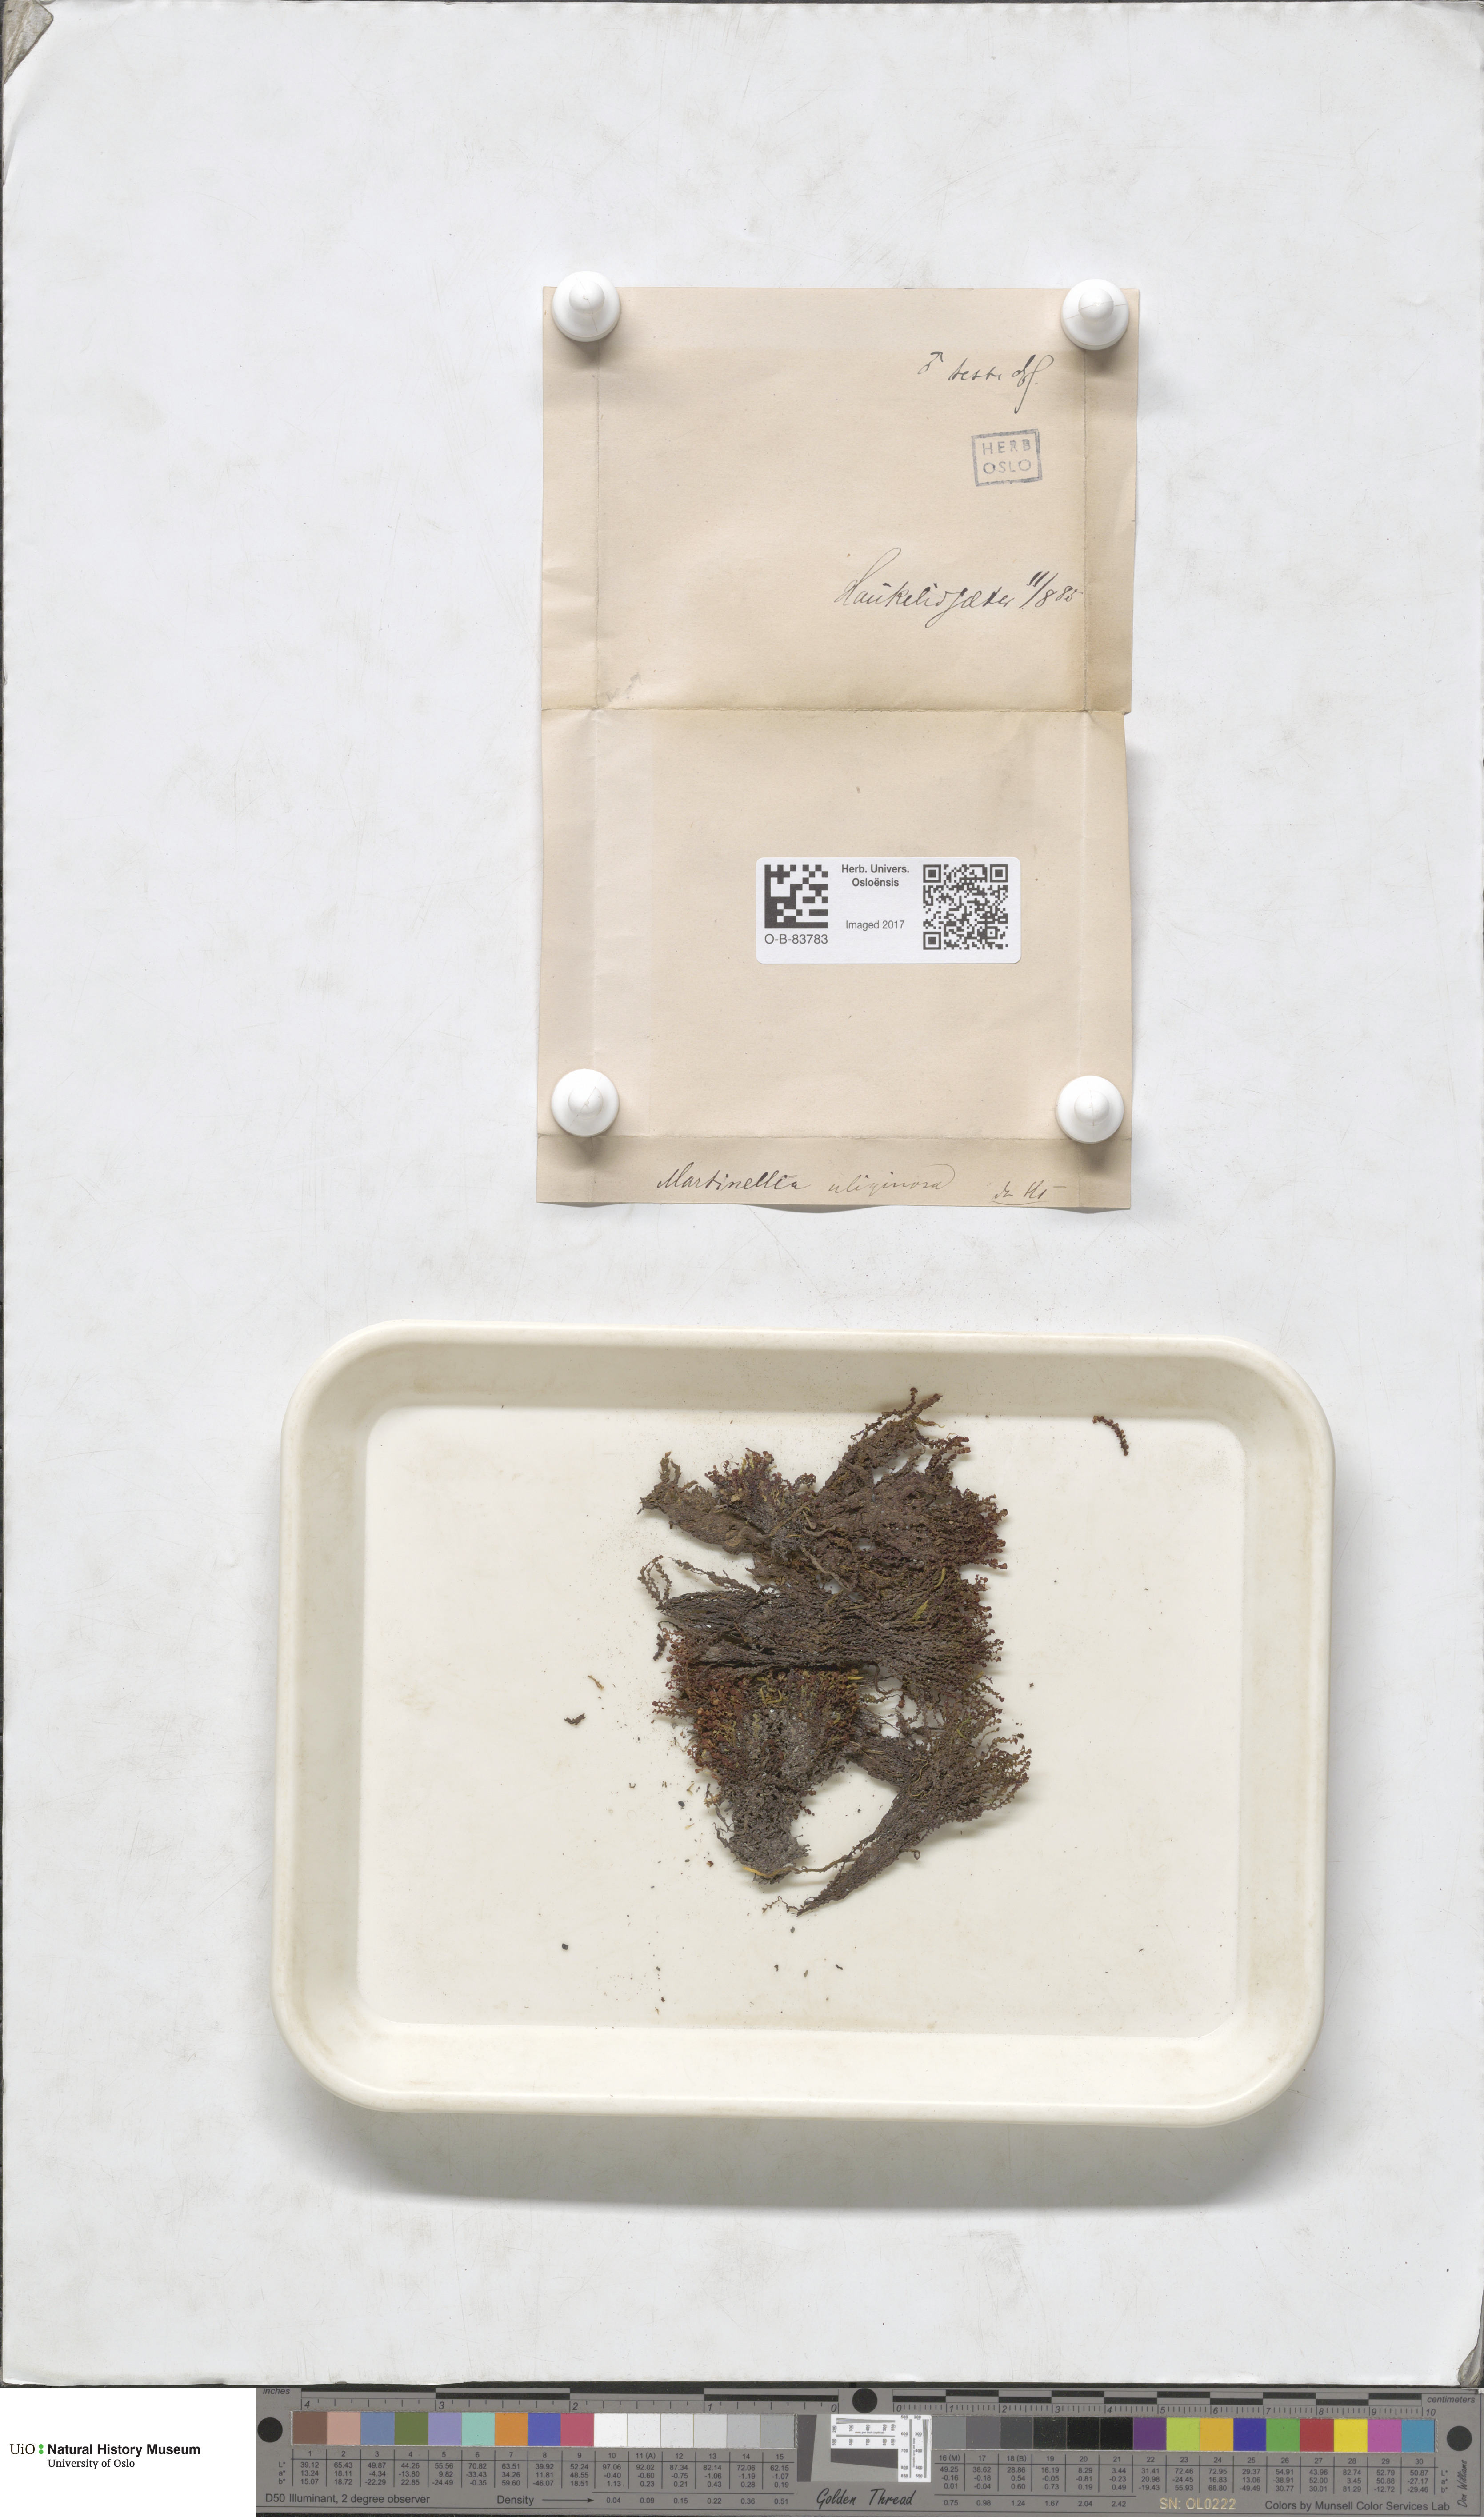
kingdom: Plantae
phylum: Marchantiophyta
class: Jungermanniopsida
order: Jungermanniales
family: Scapaniaceae
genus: Scapania
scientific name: Scapania uliginosa
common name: Marsh earwort
